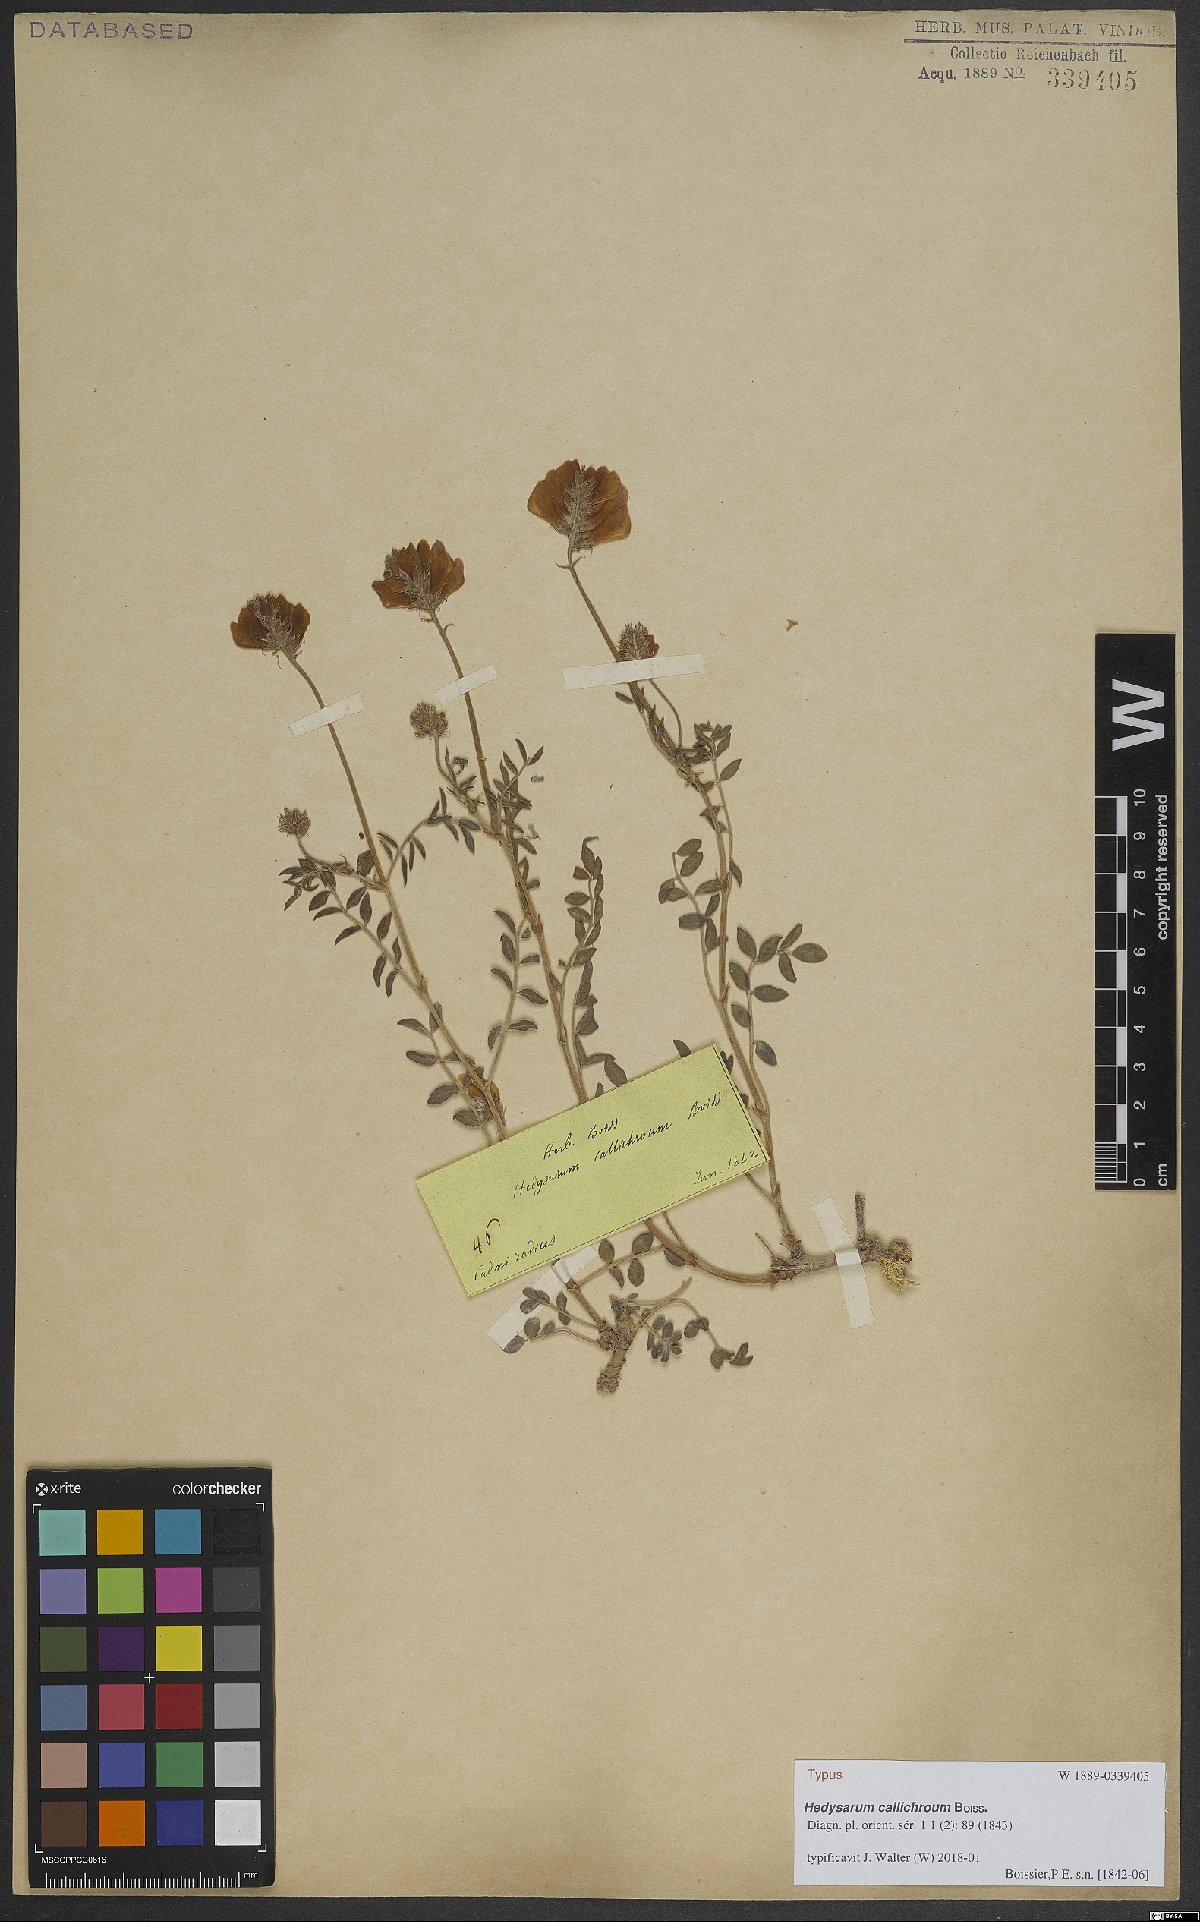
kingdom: Plantae
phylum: Tracheophyta
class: Magnoliopsida
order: Fabales
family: Fabaceae
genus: Hedysarum
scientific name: Hedysarum varium
